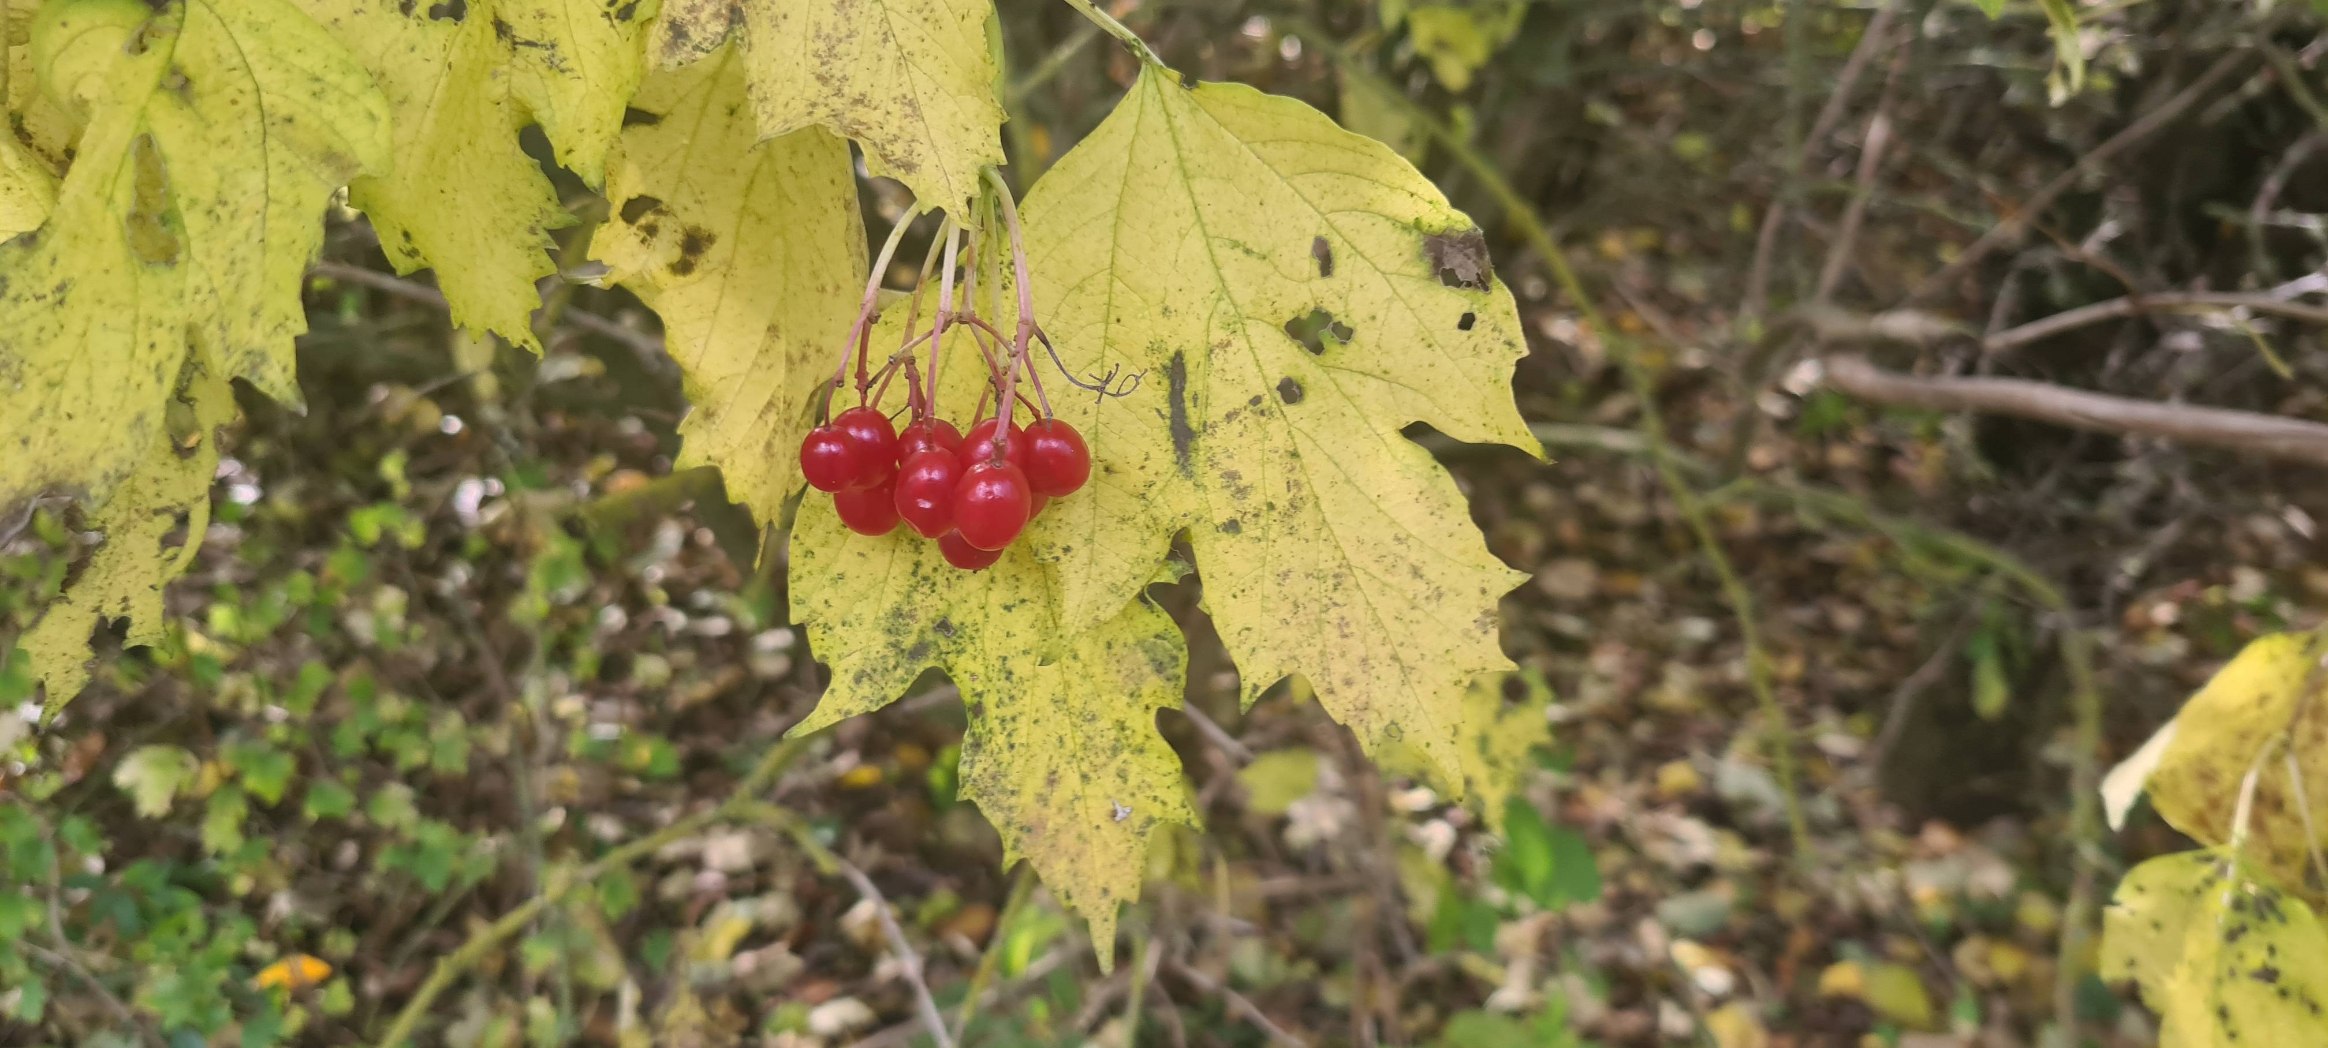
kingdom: Plantae
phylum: Tracheophyta
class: Magnoliopsida
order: Dipsacales
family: Viburnaceae
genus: Viburnum
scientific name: Viburnum opulus
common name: Kvalkved
